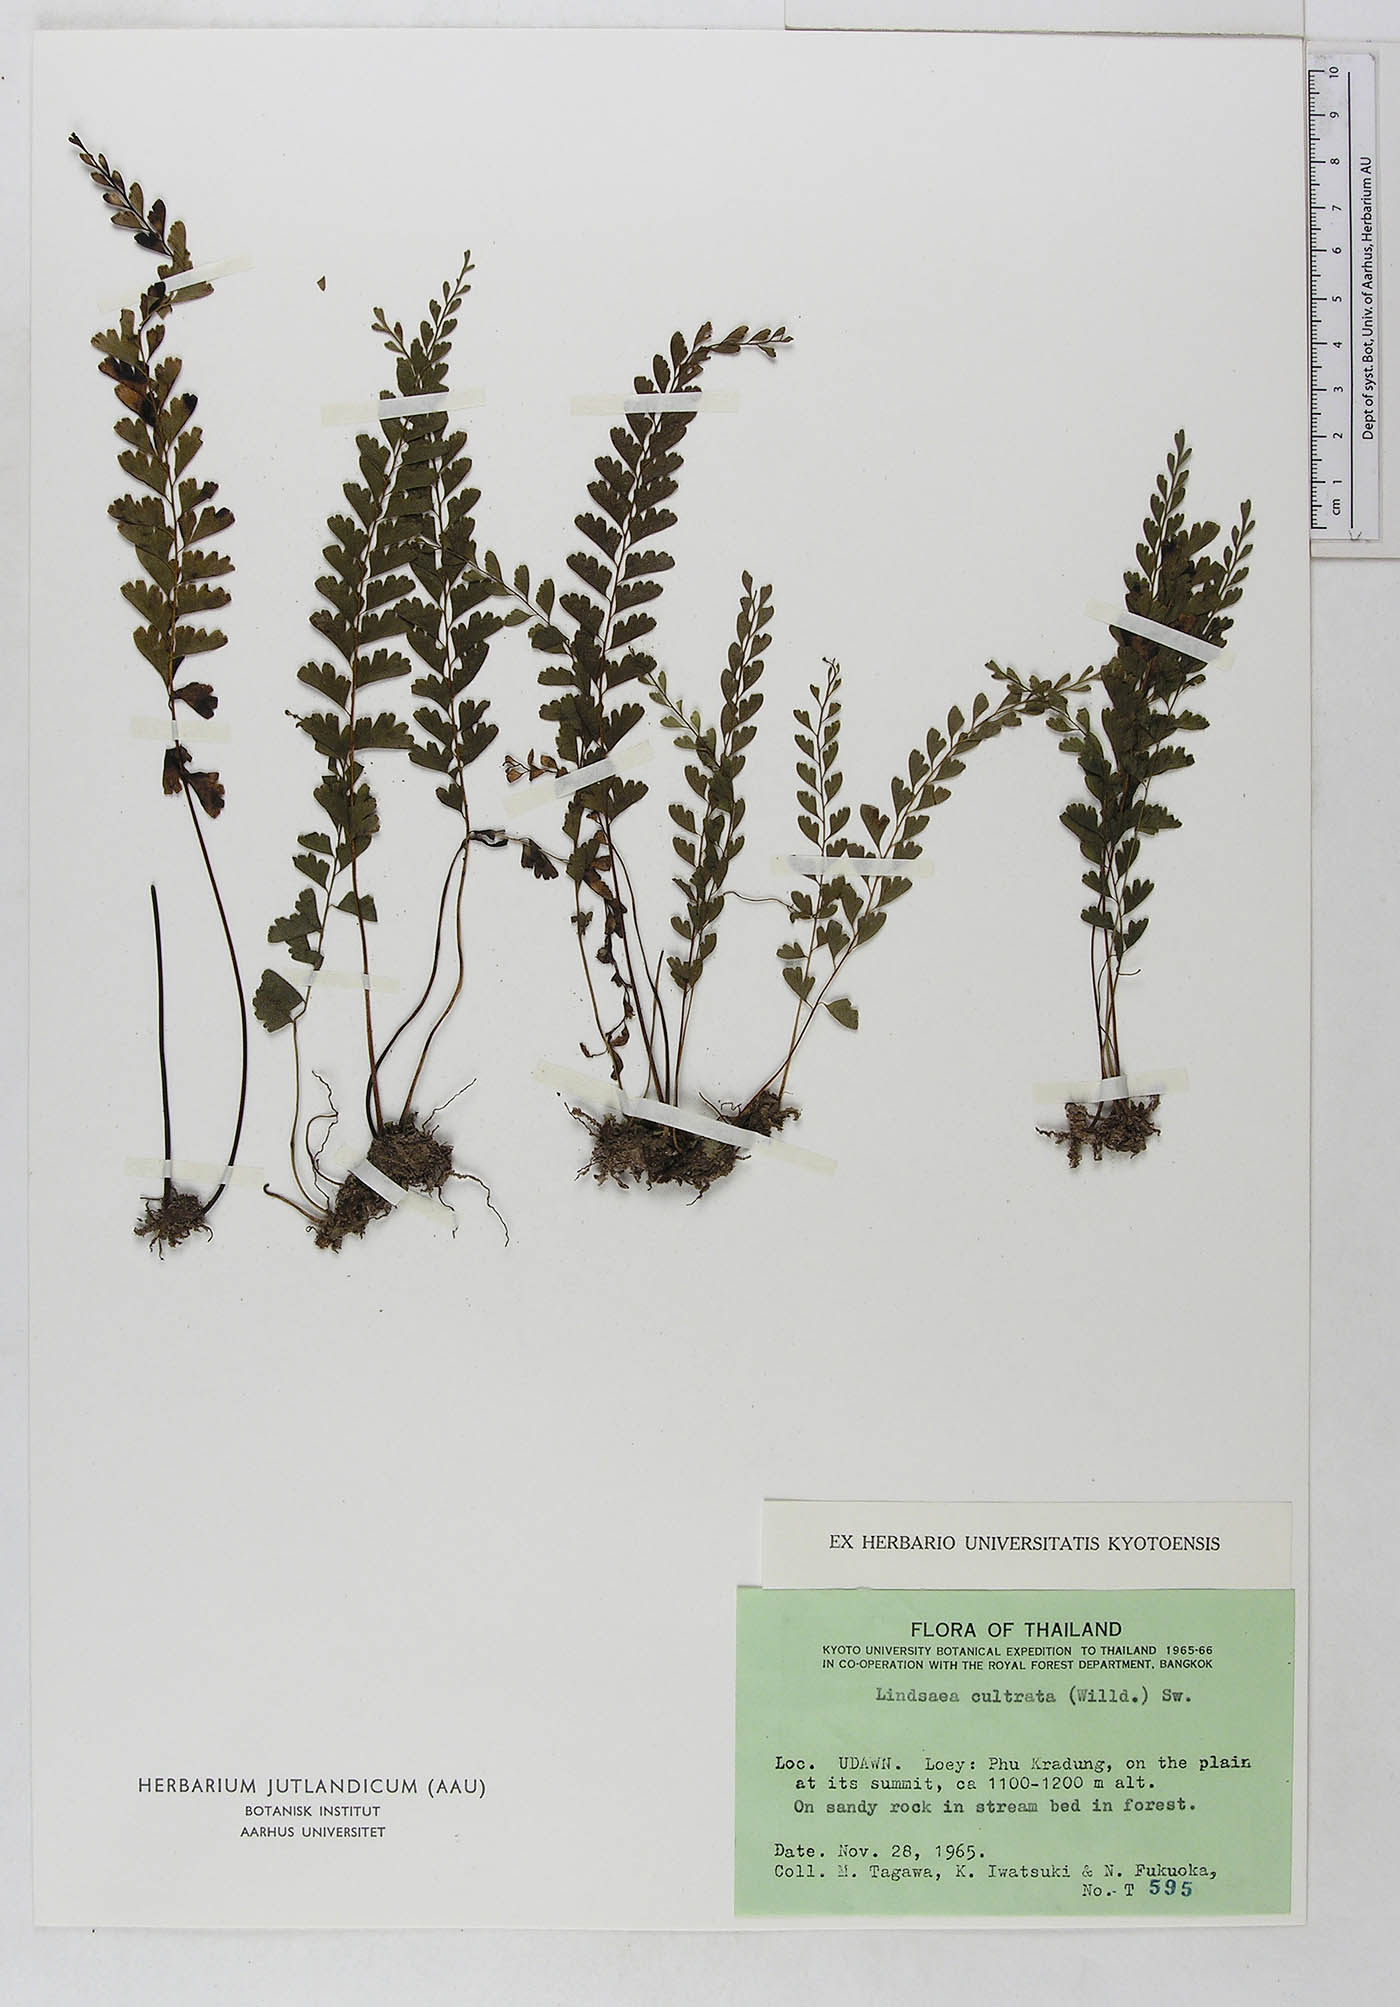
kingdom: Plantae
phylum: Tracheophyta
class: Polypodiopsida
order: Polypodiales
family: Lindsaeaceae
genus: Lindsaea
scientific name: Lindsaea cultrata
